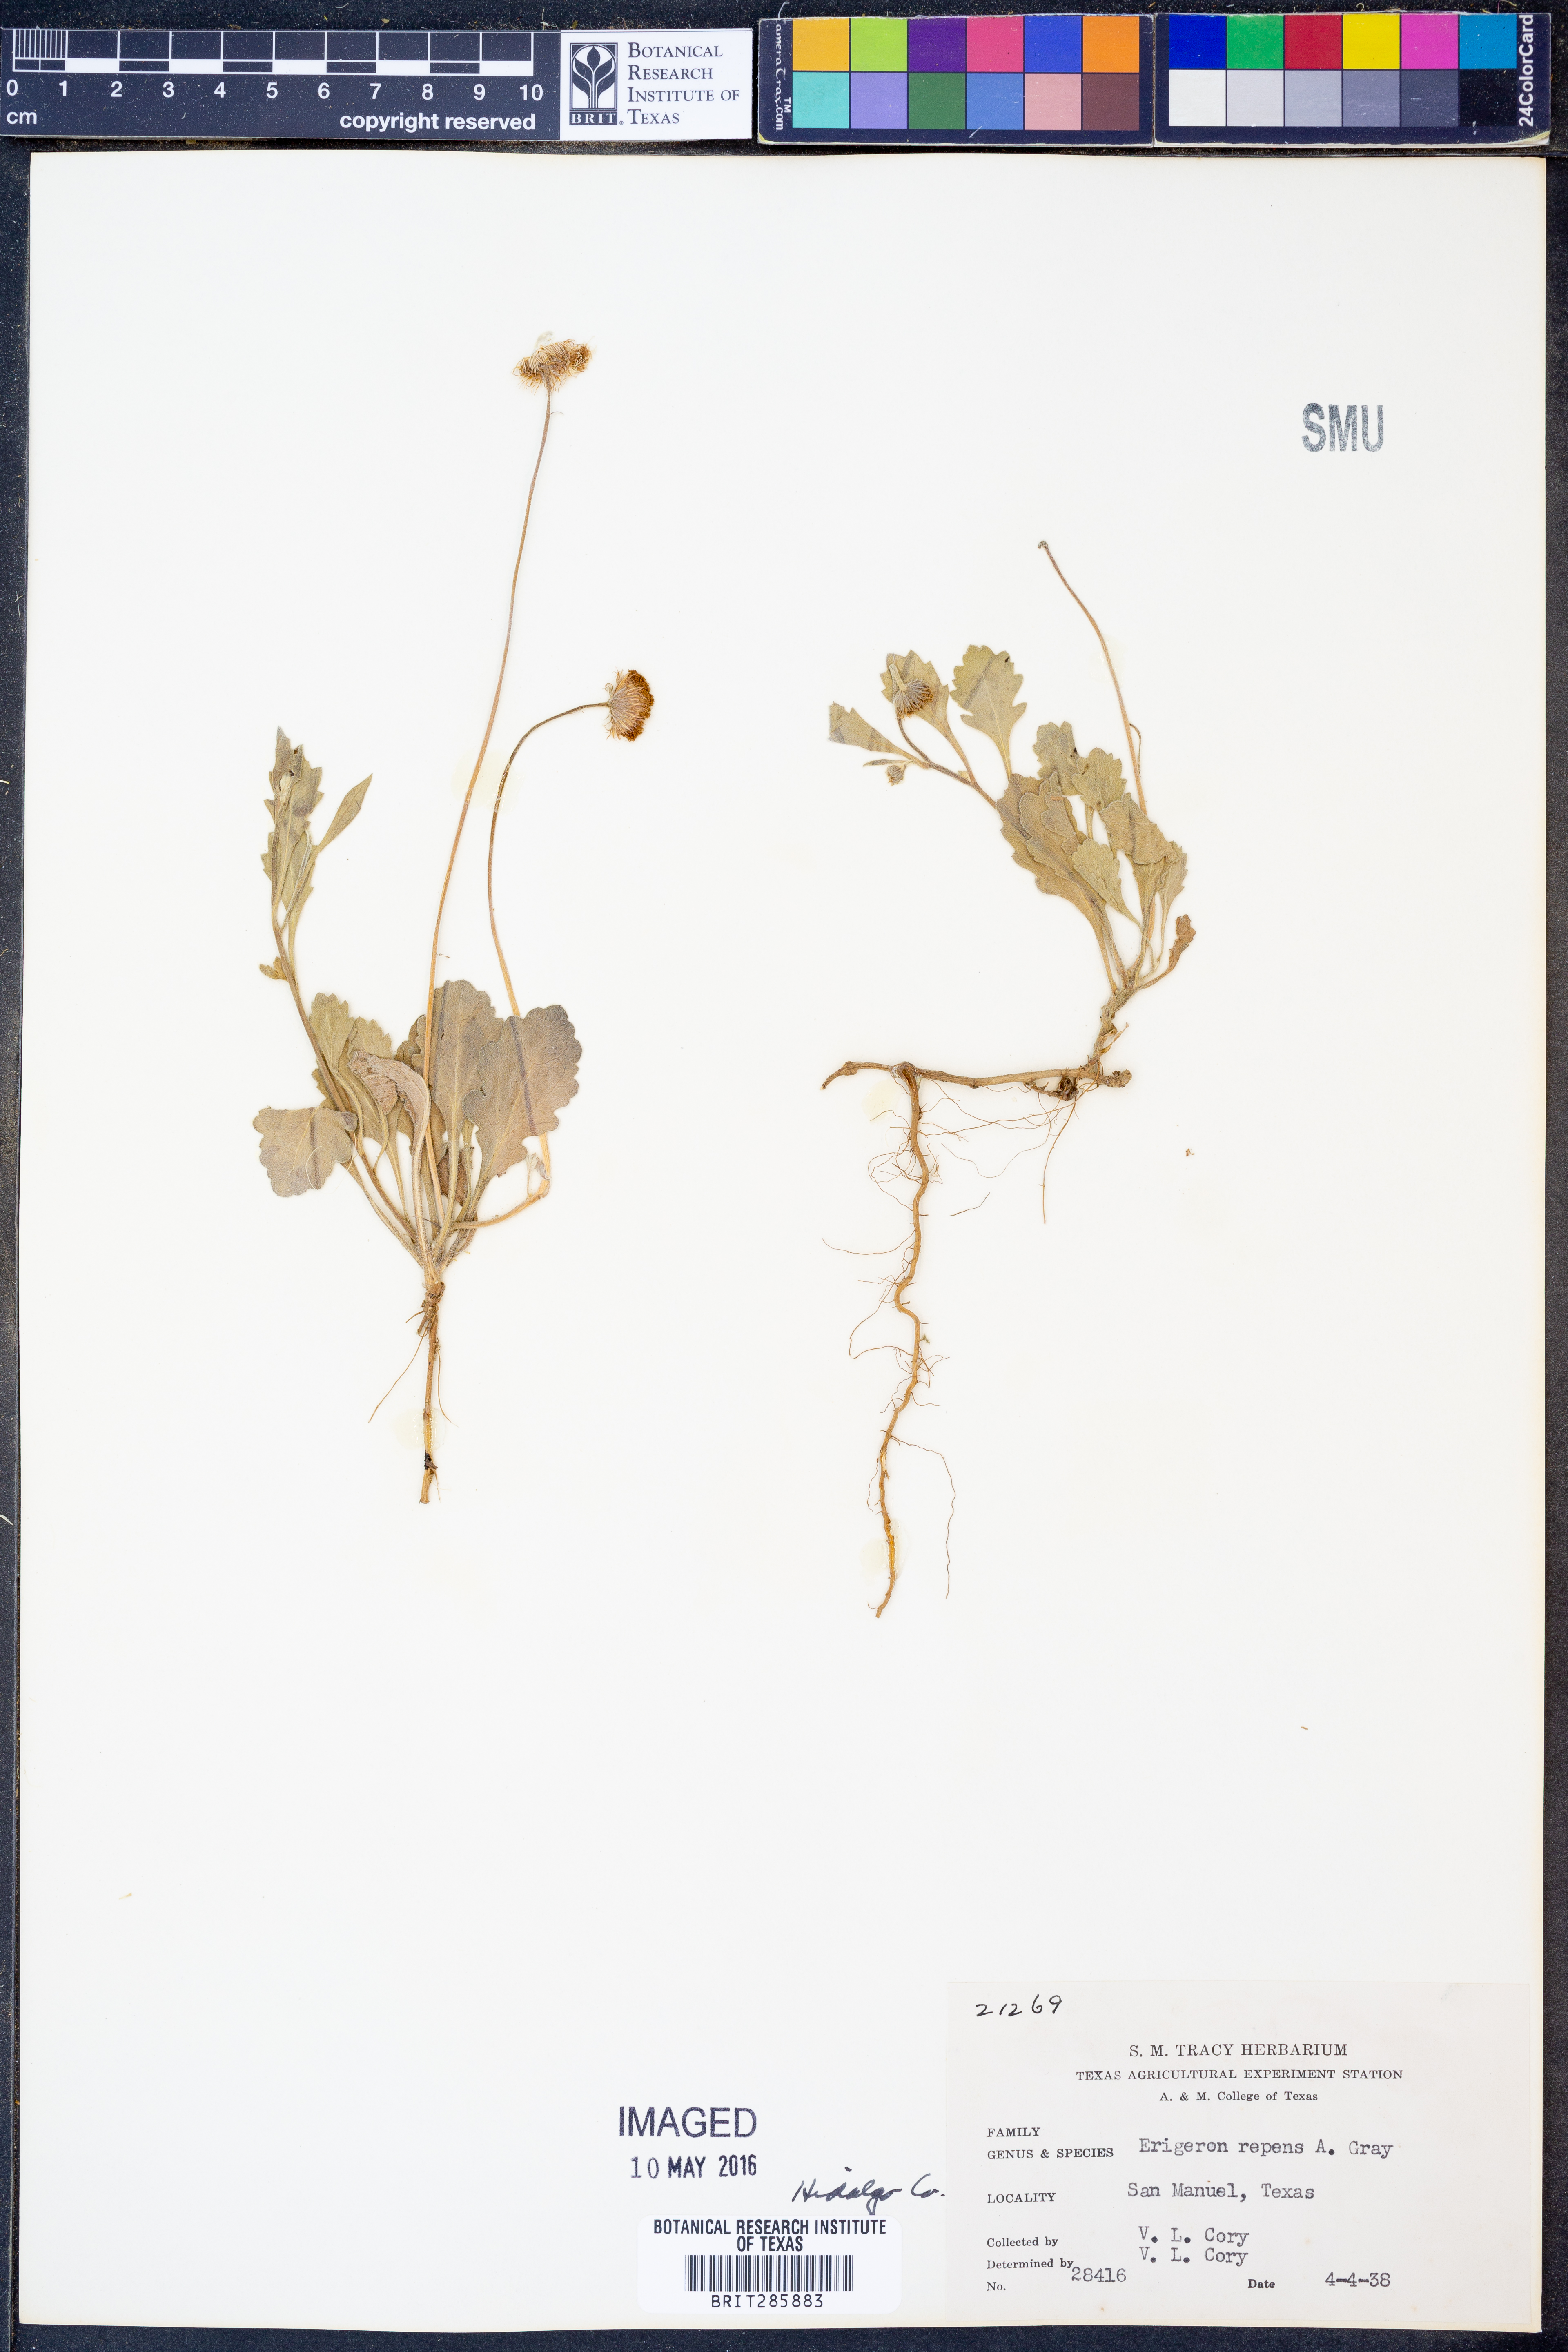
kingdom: Plantae
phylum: Tracheophyta
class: Magnoliopsida
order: Asterales
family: Asteraceae
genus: Erigeron
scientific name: Erigeron glacialis
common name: Subalpine fleabane
